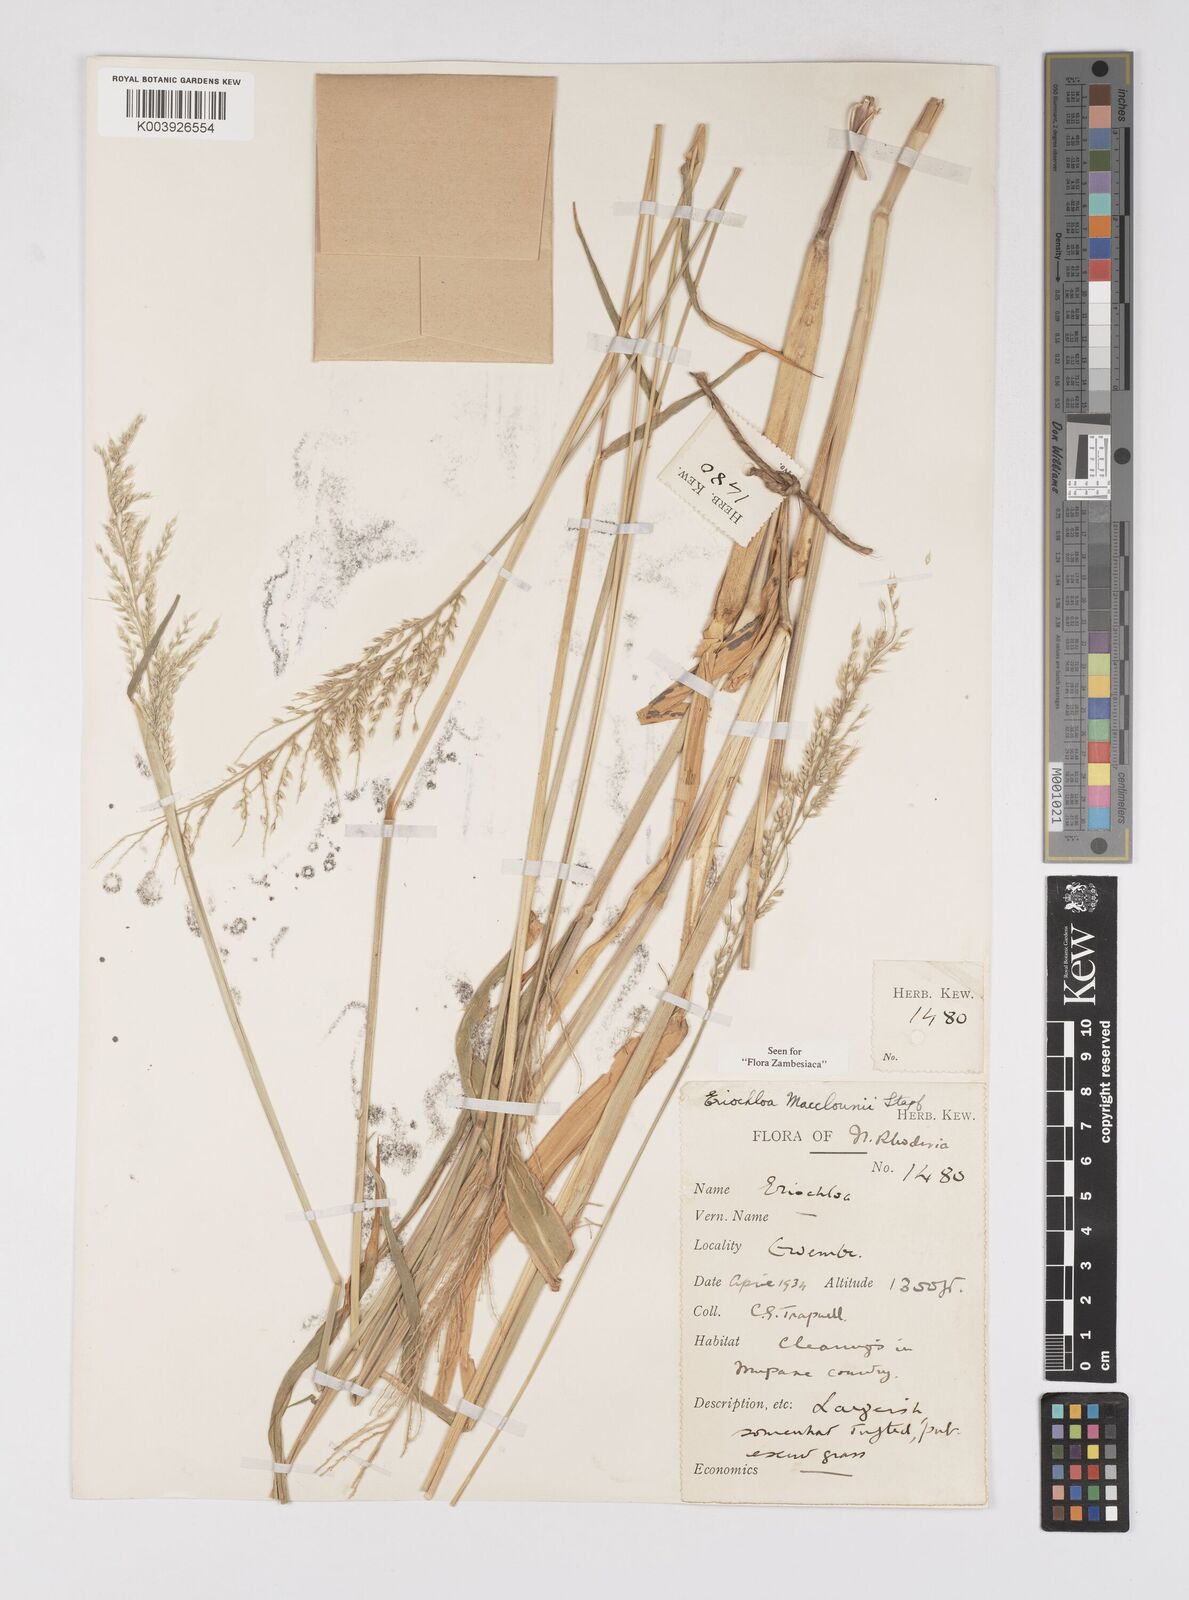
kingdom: Plantae
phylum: Tracheophyta
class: Liliopsida
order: Poales
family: Poaceae
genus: Eriochloa
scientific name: Eriochloa macclounii
